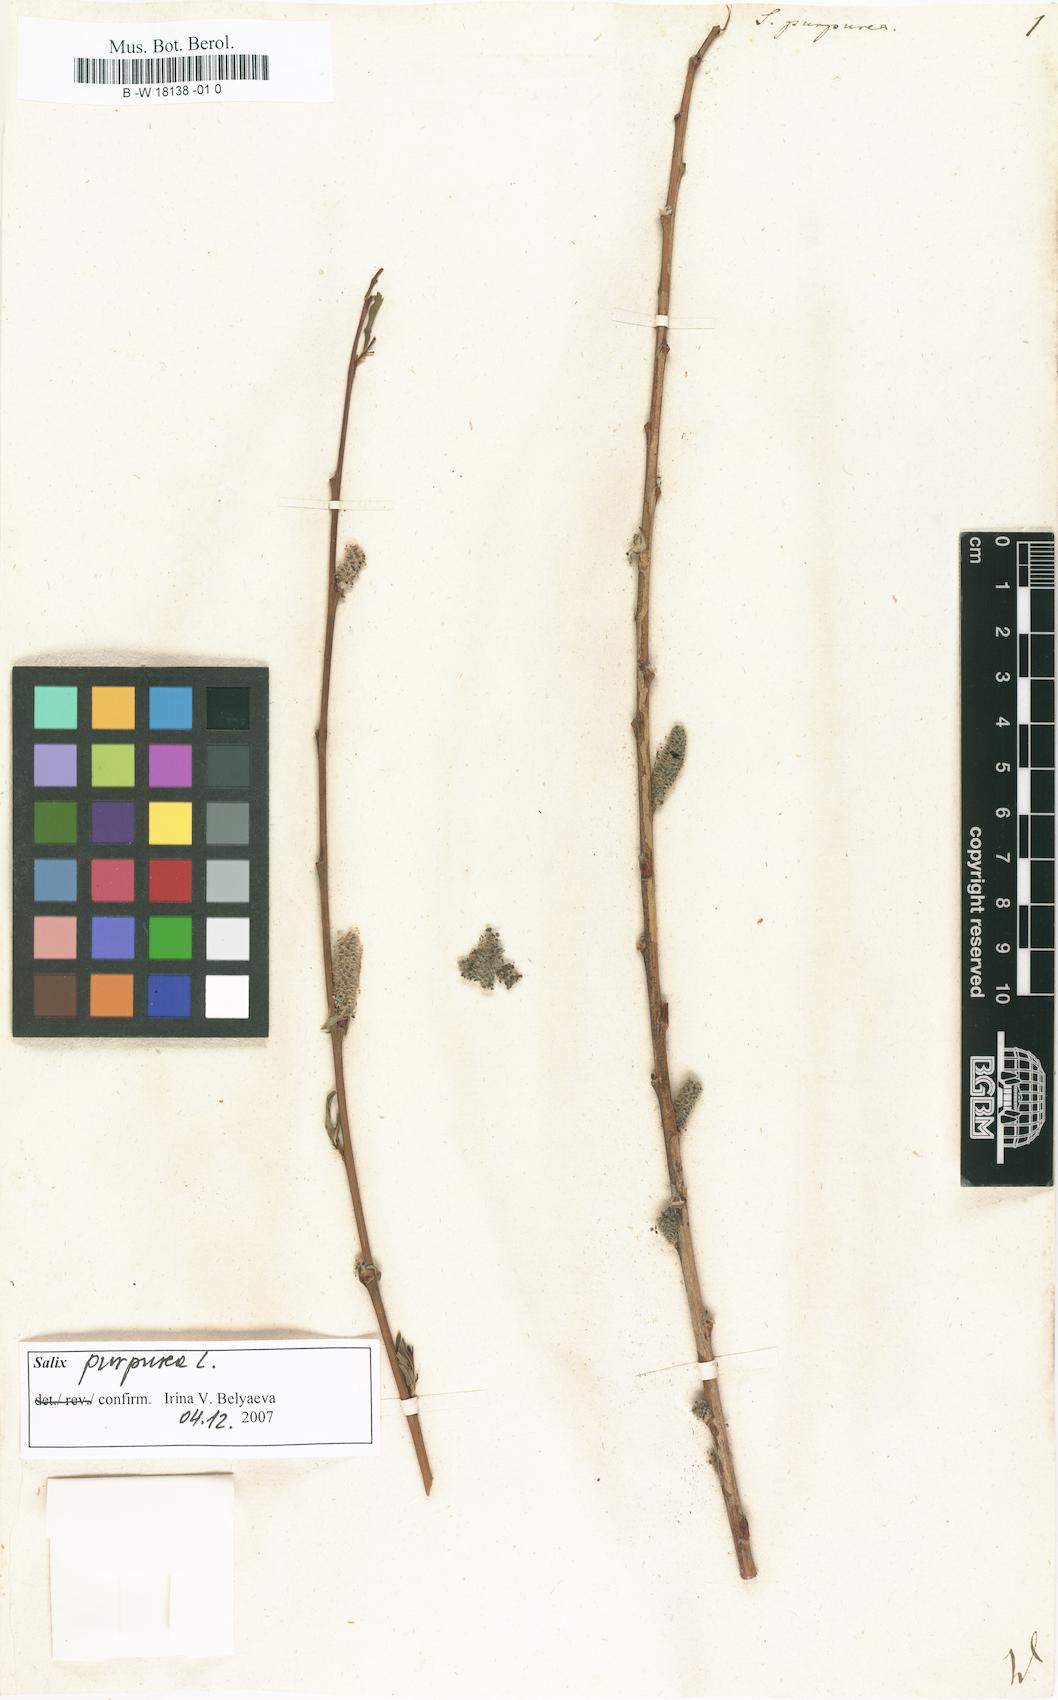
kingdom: Plantae
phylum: Tracheophyta
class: Magnoliopsida
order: Malpighiales
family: Salicaceae
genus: Salix
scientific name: Salix purpurea
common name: Purple willow
